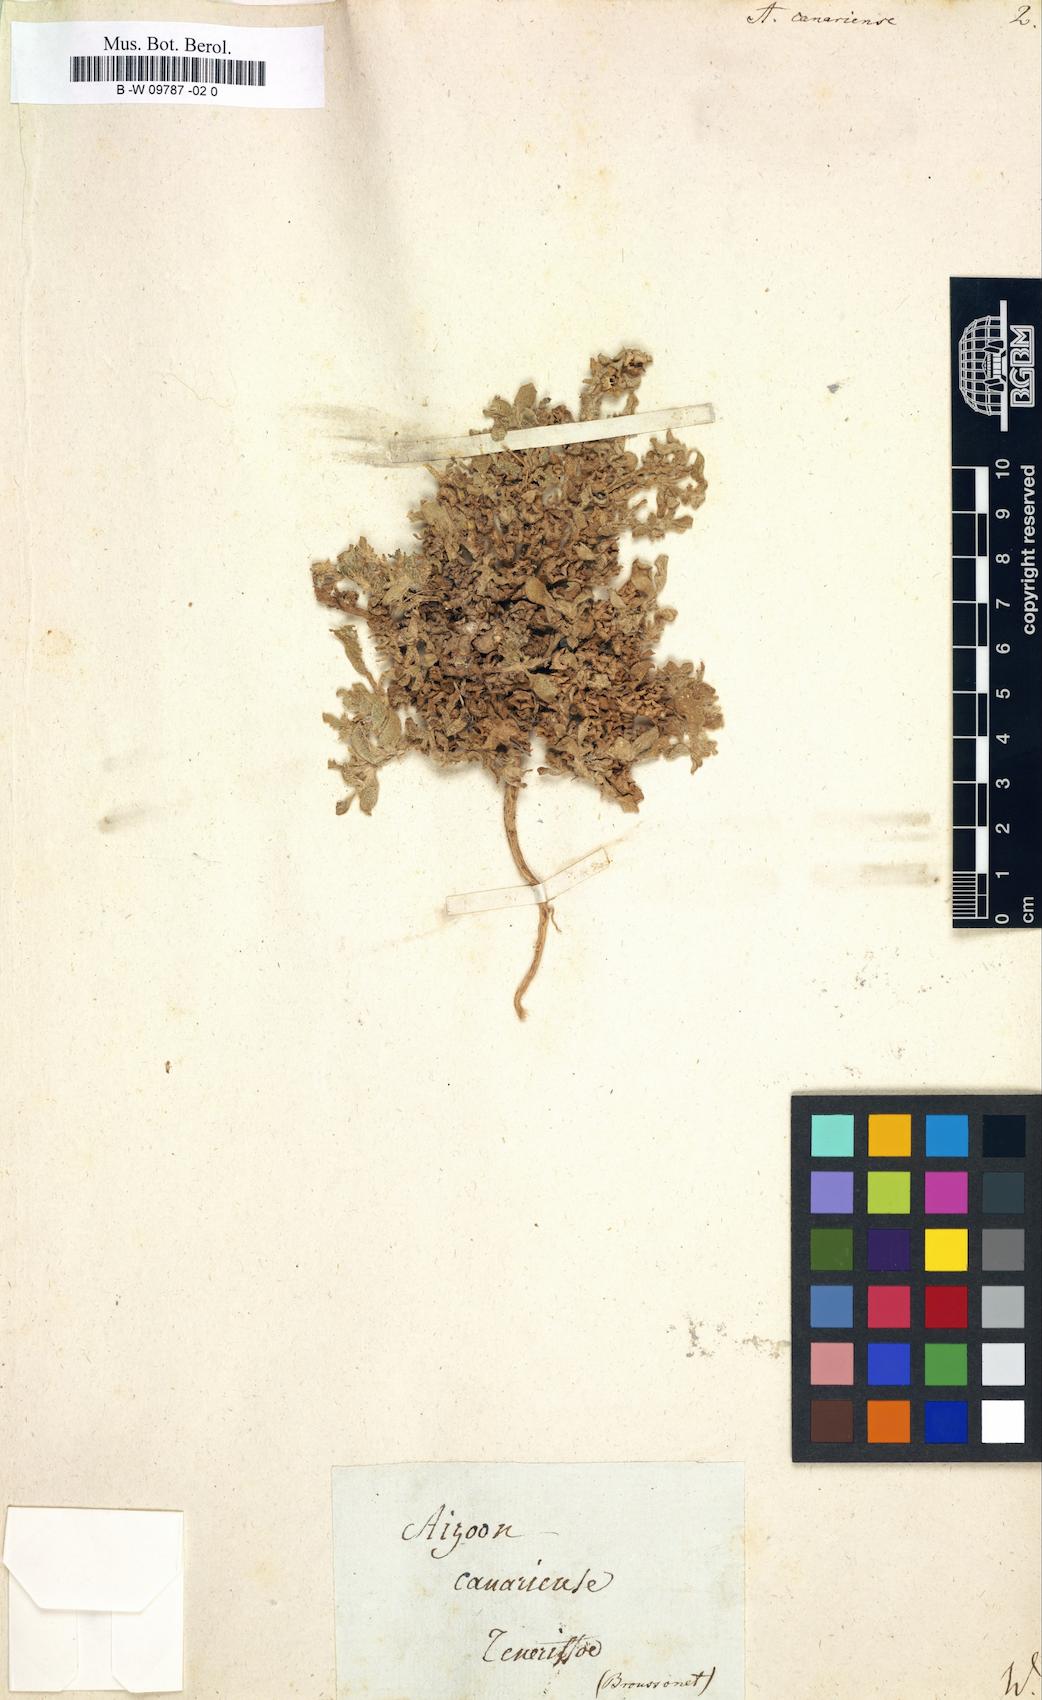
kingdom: Plantae
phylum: Tracheophyta
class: Magnoliopsida
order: Caryophyllales
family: Aizoaceae
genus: Aizoon
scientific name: Aizoon canariense
